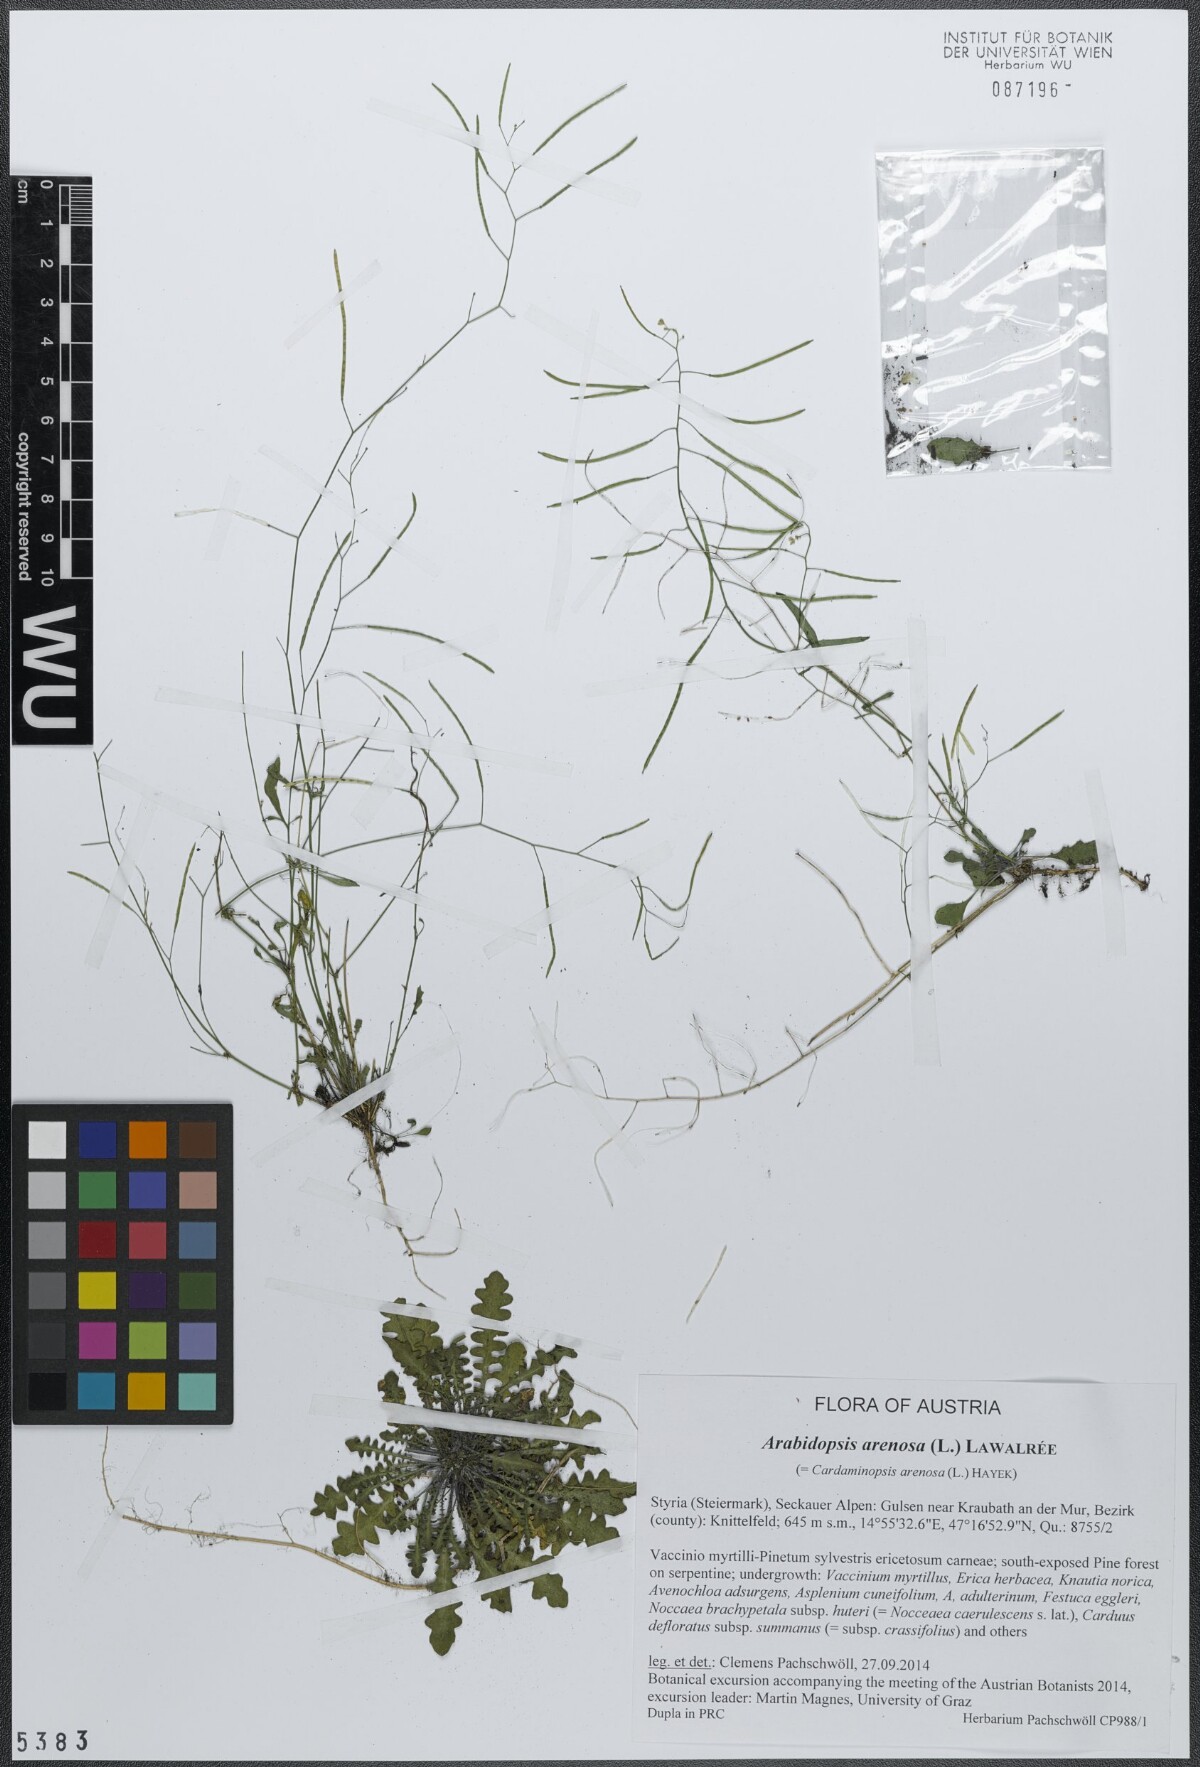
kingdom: Plantae
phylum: Tracheophyta
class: Magnoliopsida
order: Brassicales
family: Brassicaceae
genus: Arabidopsis
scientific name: Arabidopsis arenosa
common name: Sand rock-cress
